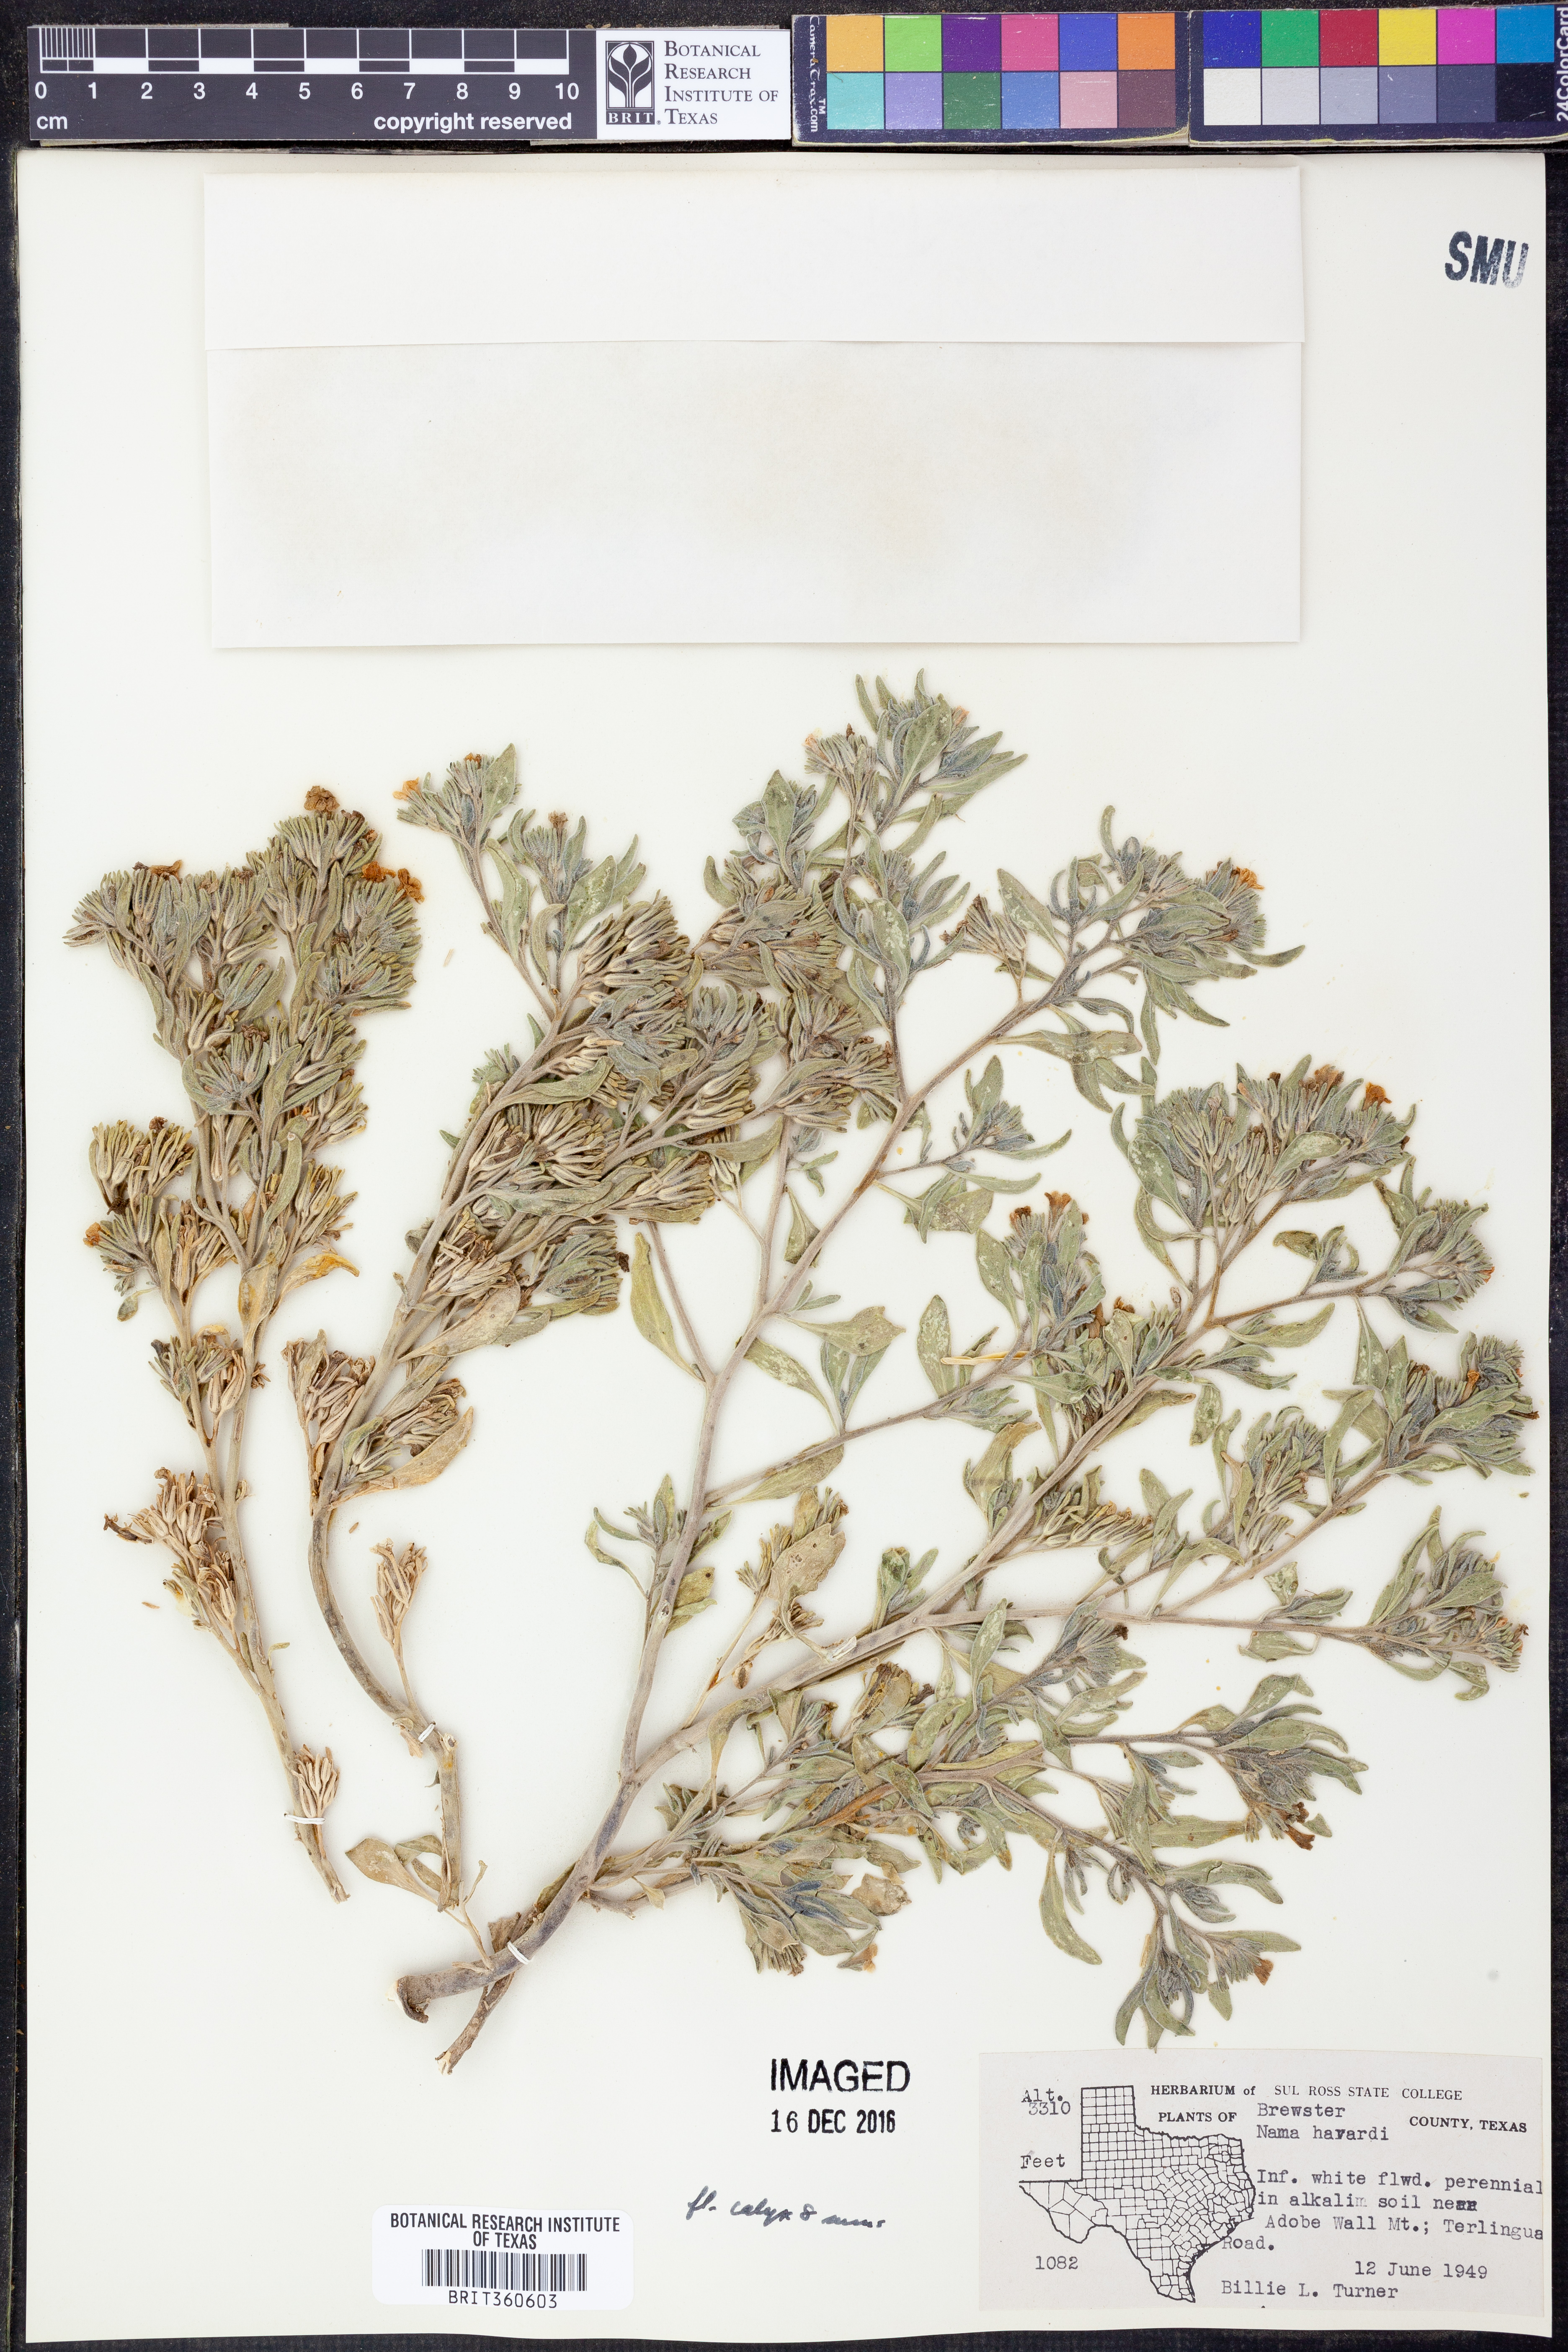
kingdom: Plantae
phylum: Tracheophyta
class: Magnoliopsida
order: Boraginales
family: Namaceae
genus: Nama
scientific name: Nama havardii
